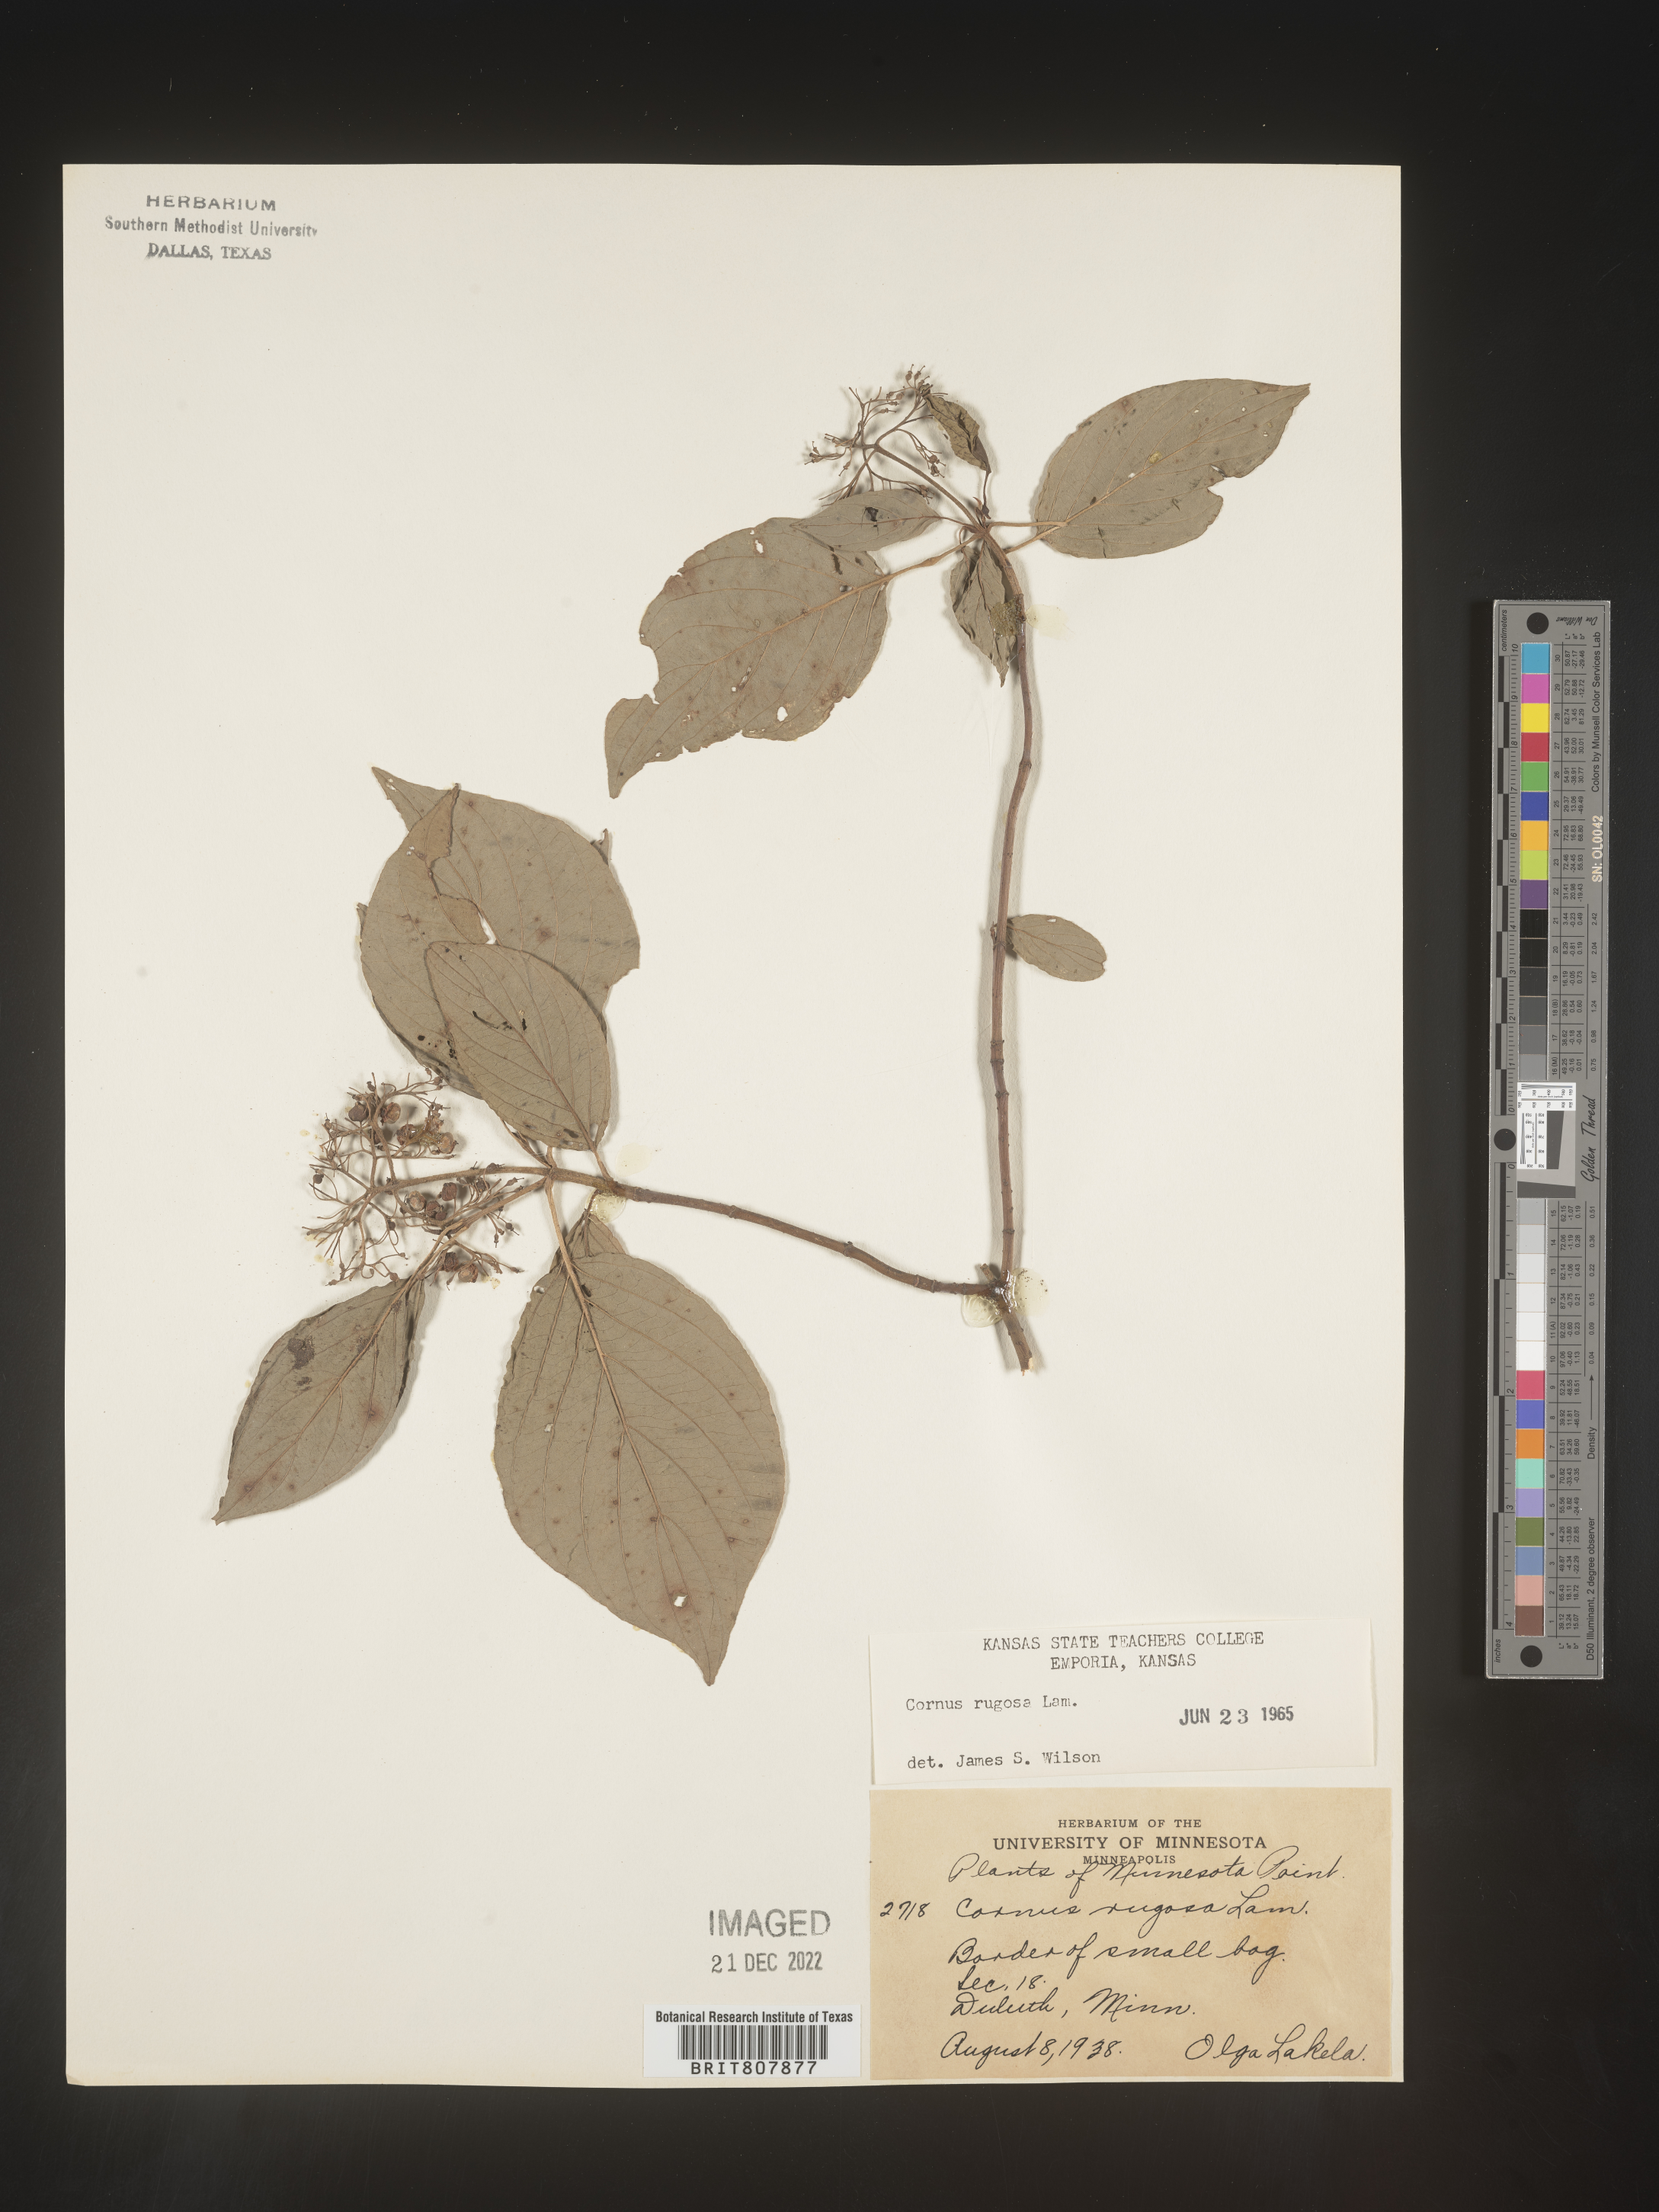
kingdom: Plantae
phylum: Tracheophyta
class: Magnoliopsida
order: Cornales
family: Cornaceae
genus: Cornus
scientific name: Cornus rugosa
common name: Round-leaf dogwood
